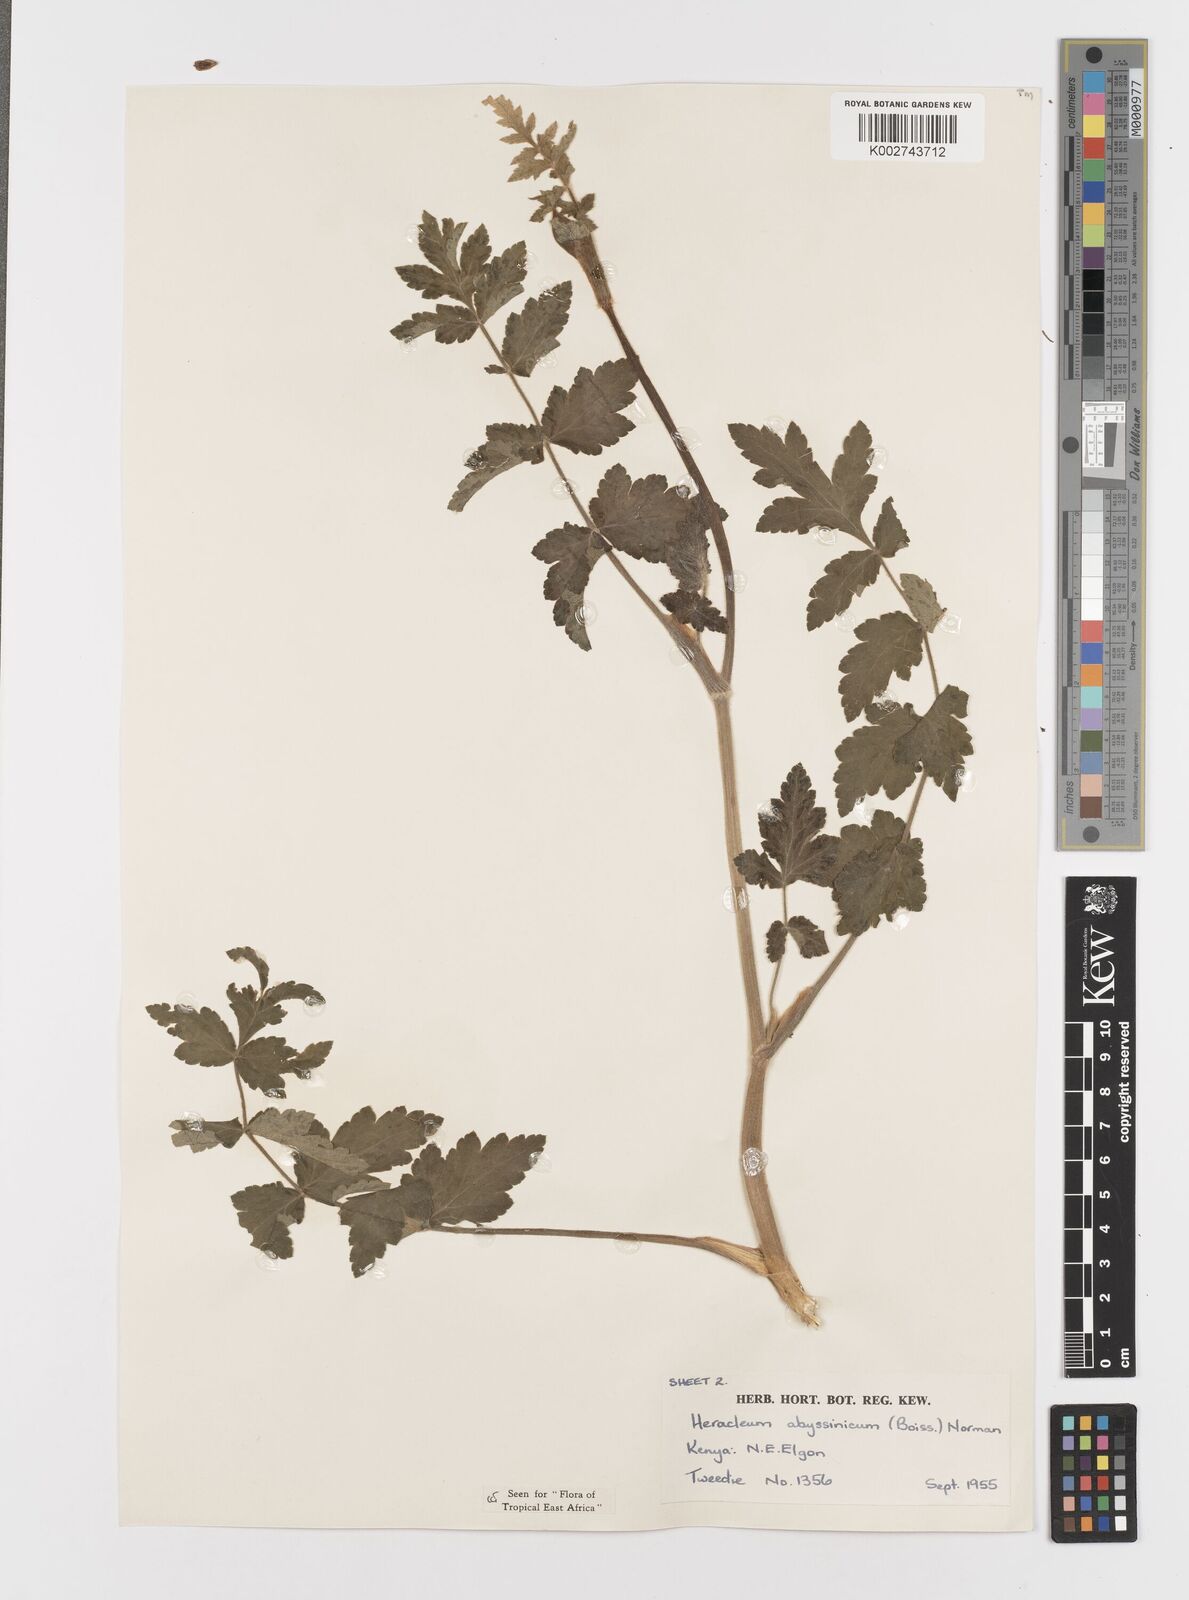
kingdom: Plantae
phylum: Tracheophyta
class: Magnoliopsida
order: Apiales
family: Apiaceae
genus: Heracleum
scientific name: Heracleum abyssinicum
